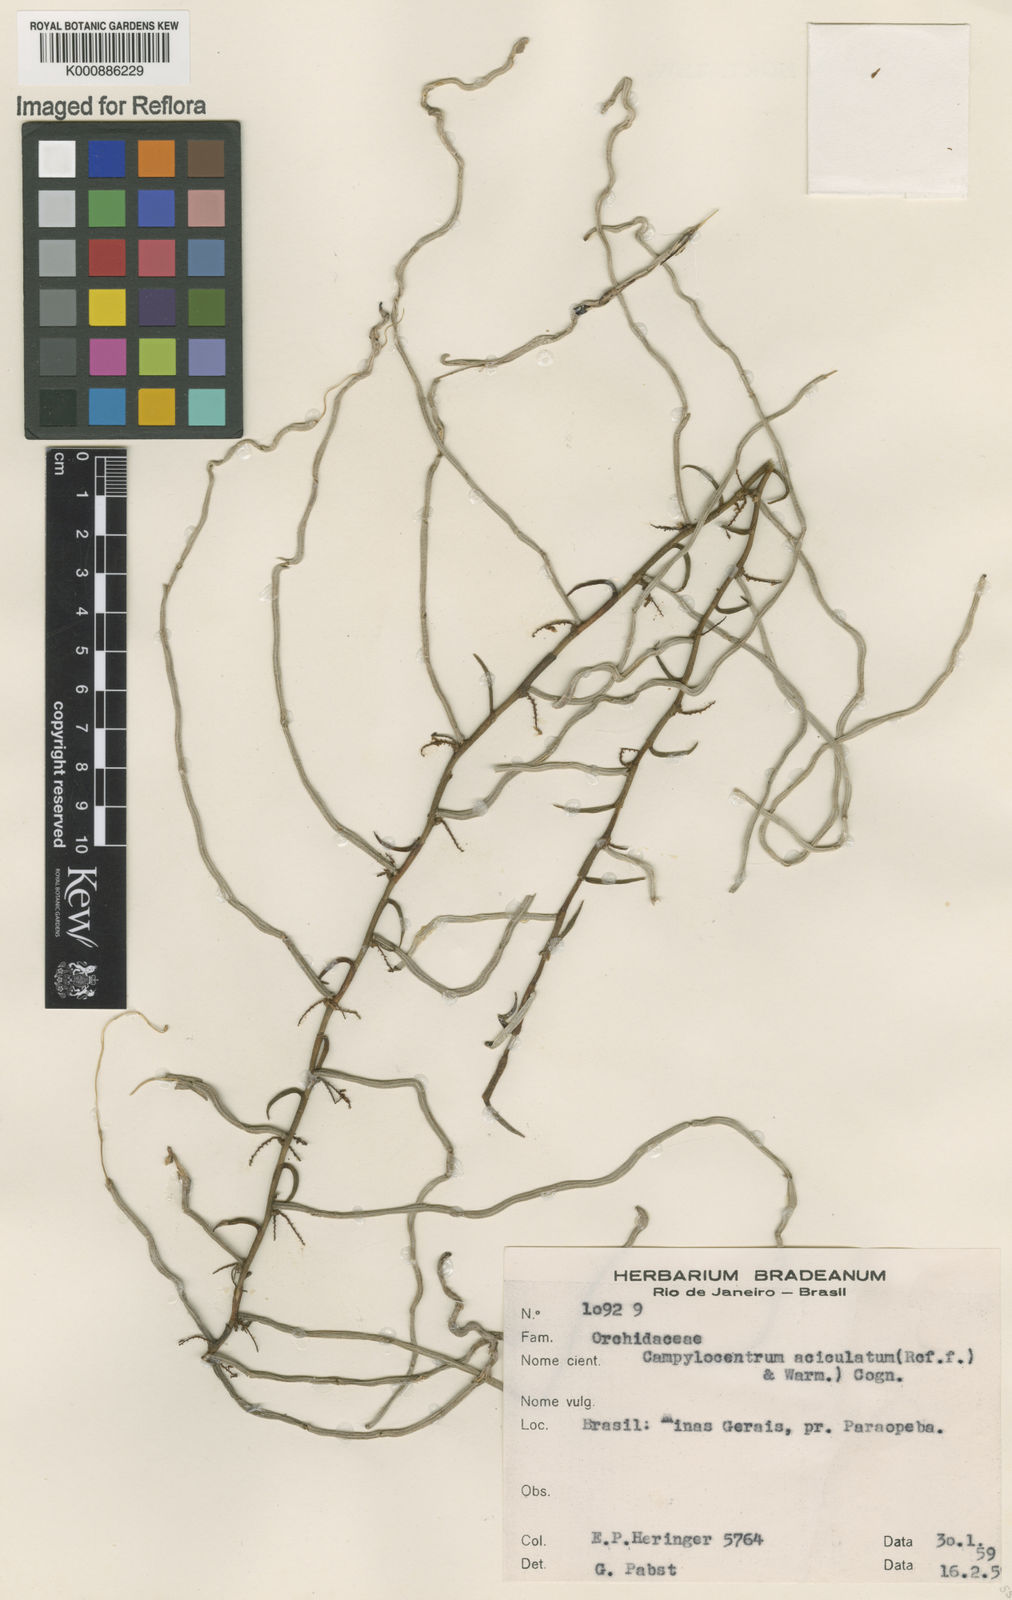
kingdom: Plantae
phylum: Tracheophyta
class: Liliopsida
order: Asparagales
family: Orchidaceae
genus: Campylocentrum
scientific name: Campylocentrum sellowii
